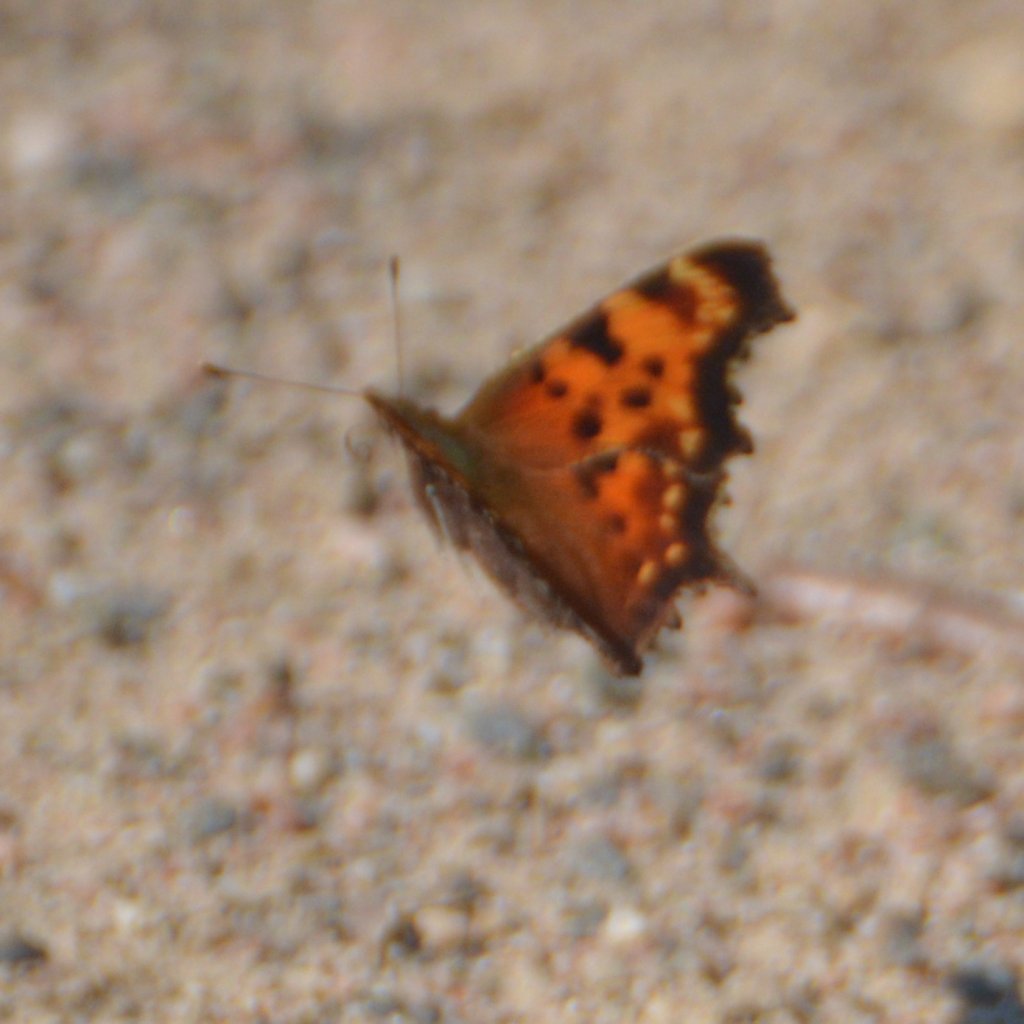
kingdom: Animalia
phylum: Arthropoda
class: Insecta
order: Lepidoptera
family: Nymphalidae
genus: Polygonia
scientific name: Polygonia faunus
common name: Green Comma
